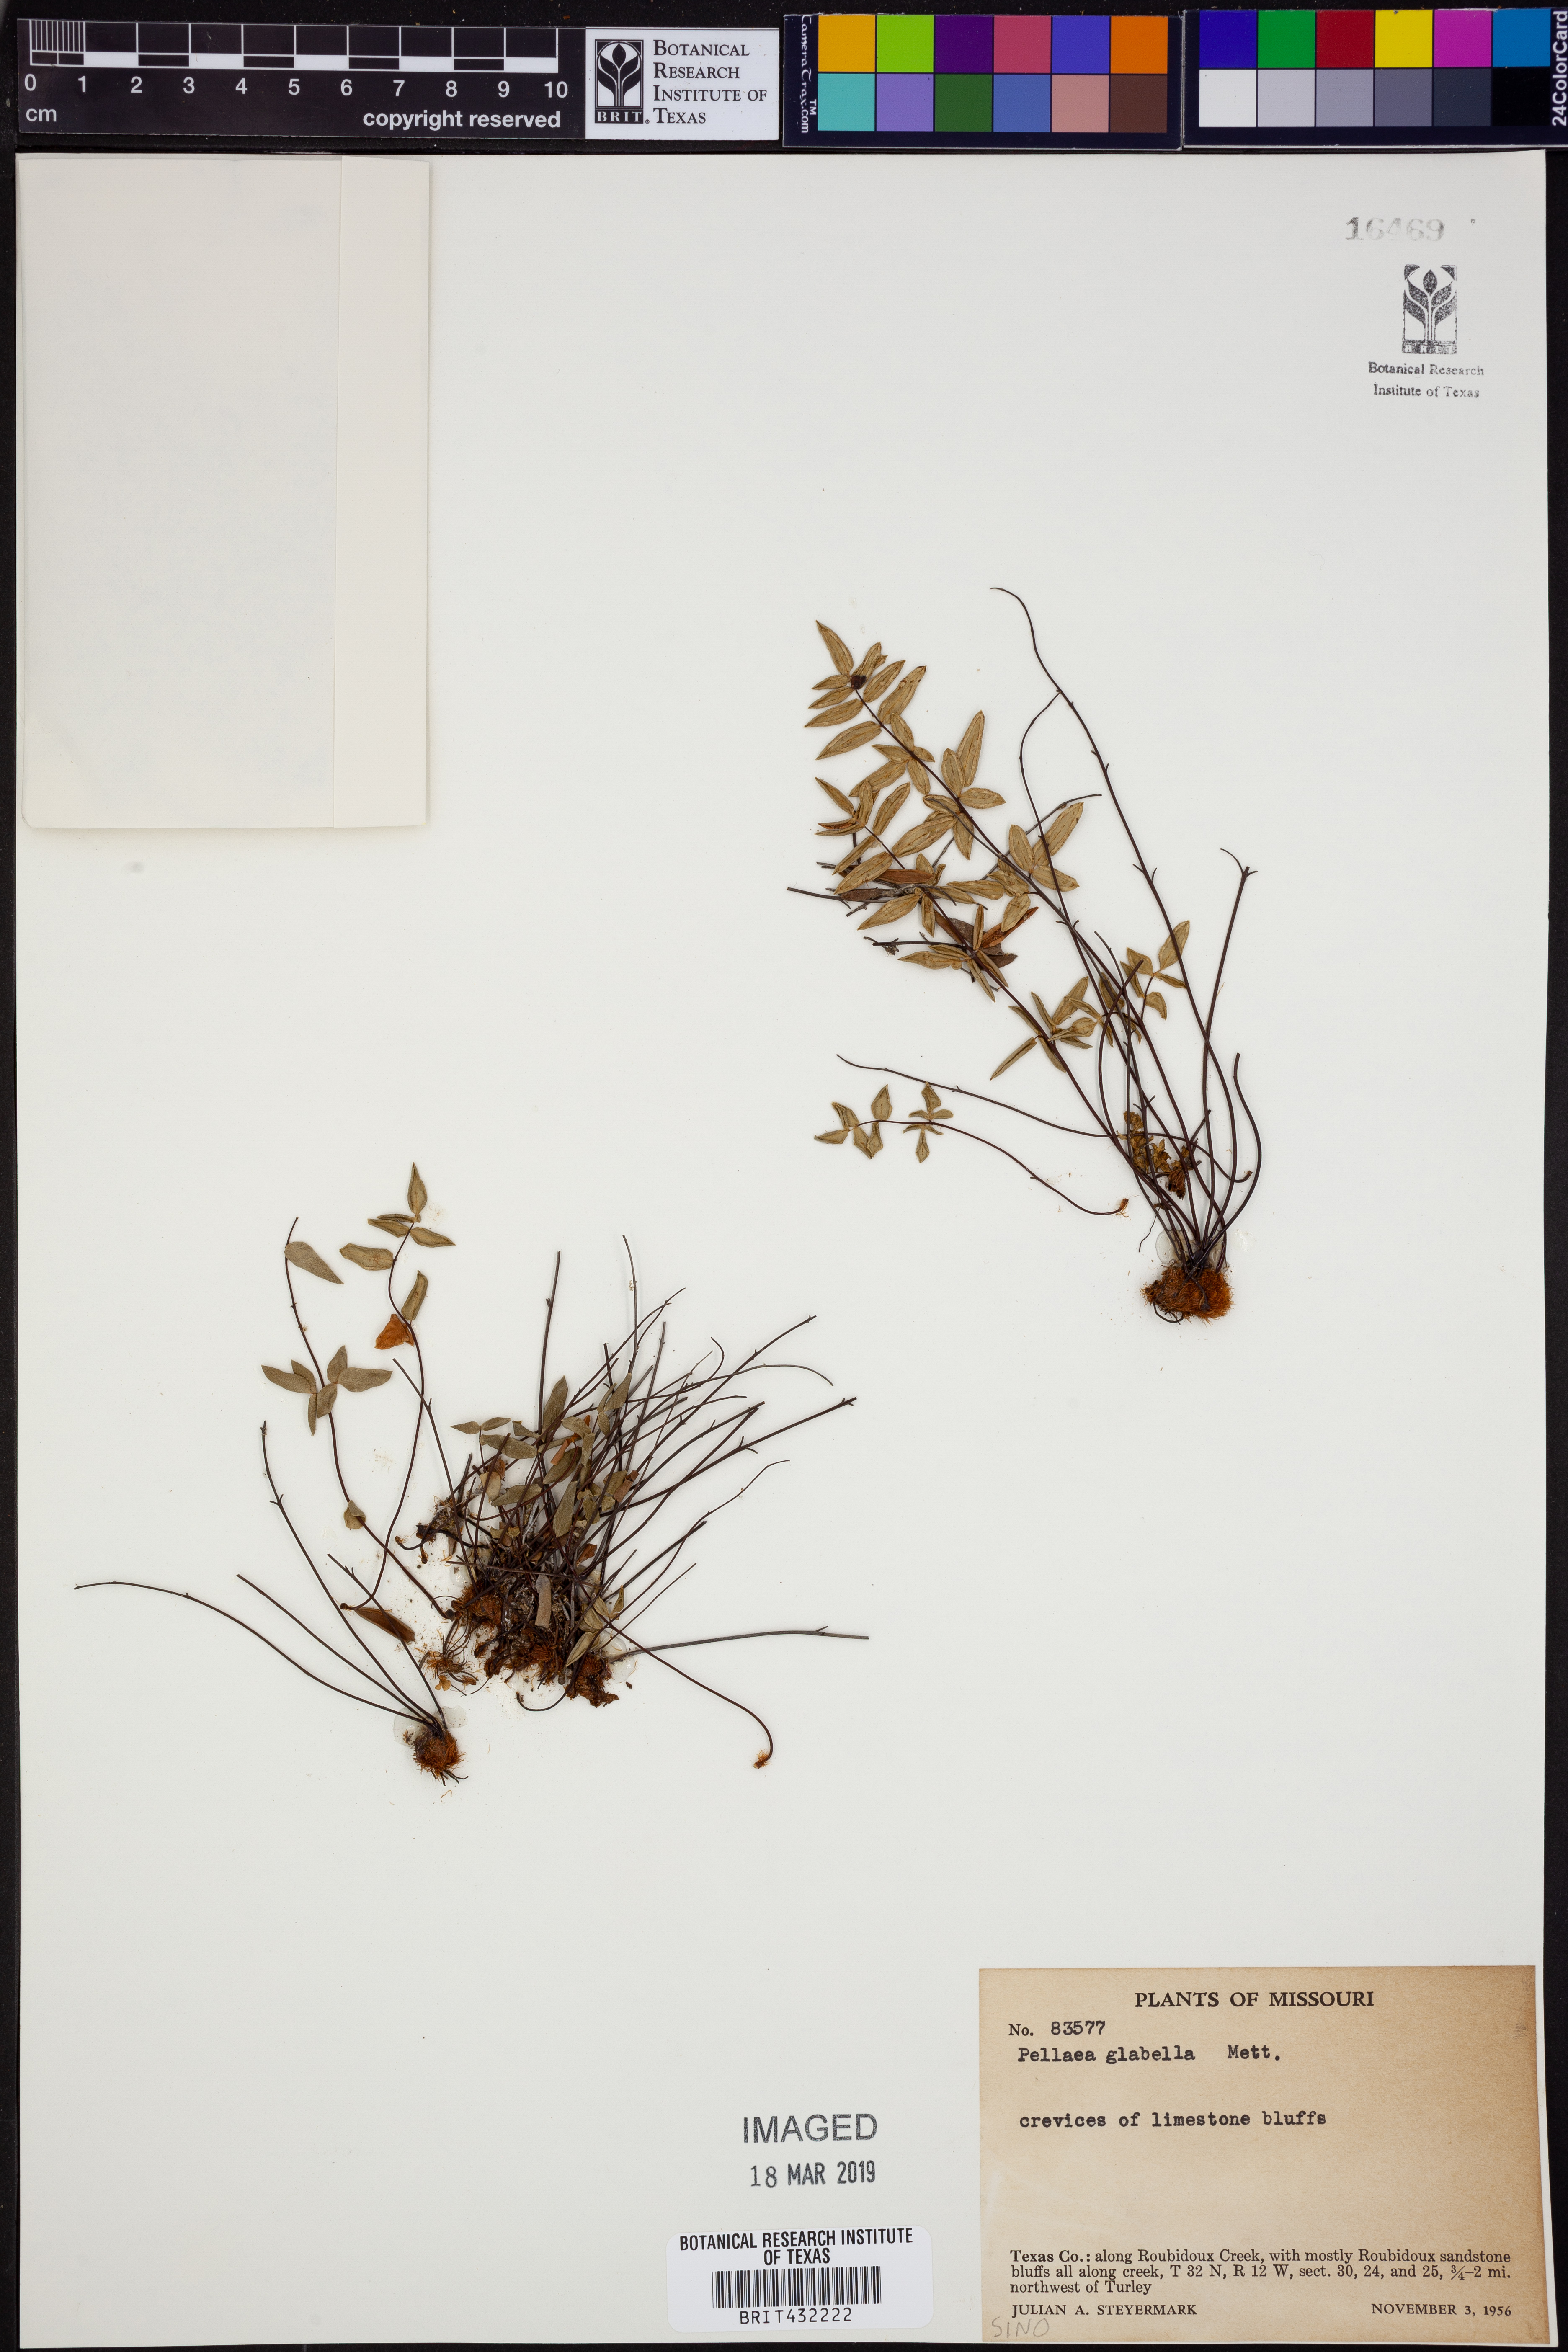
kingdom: Plantae
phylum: Tracheophyta
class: Polypodiopsida
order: Polypodiales
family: Pteridaceae
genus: Pellaea
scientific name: Pellaea glabella
